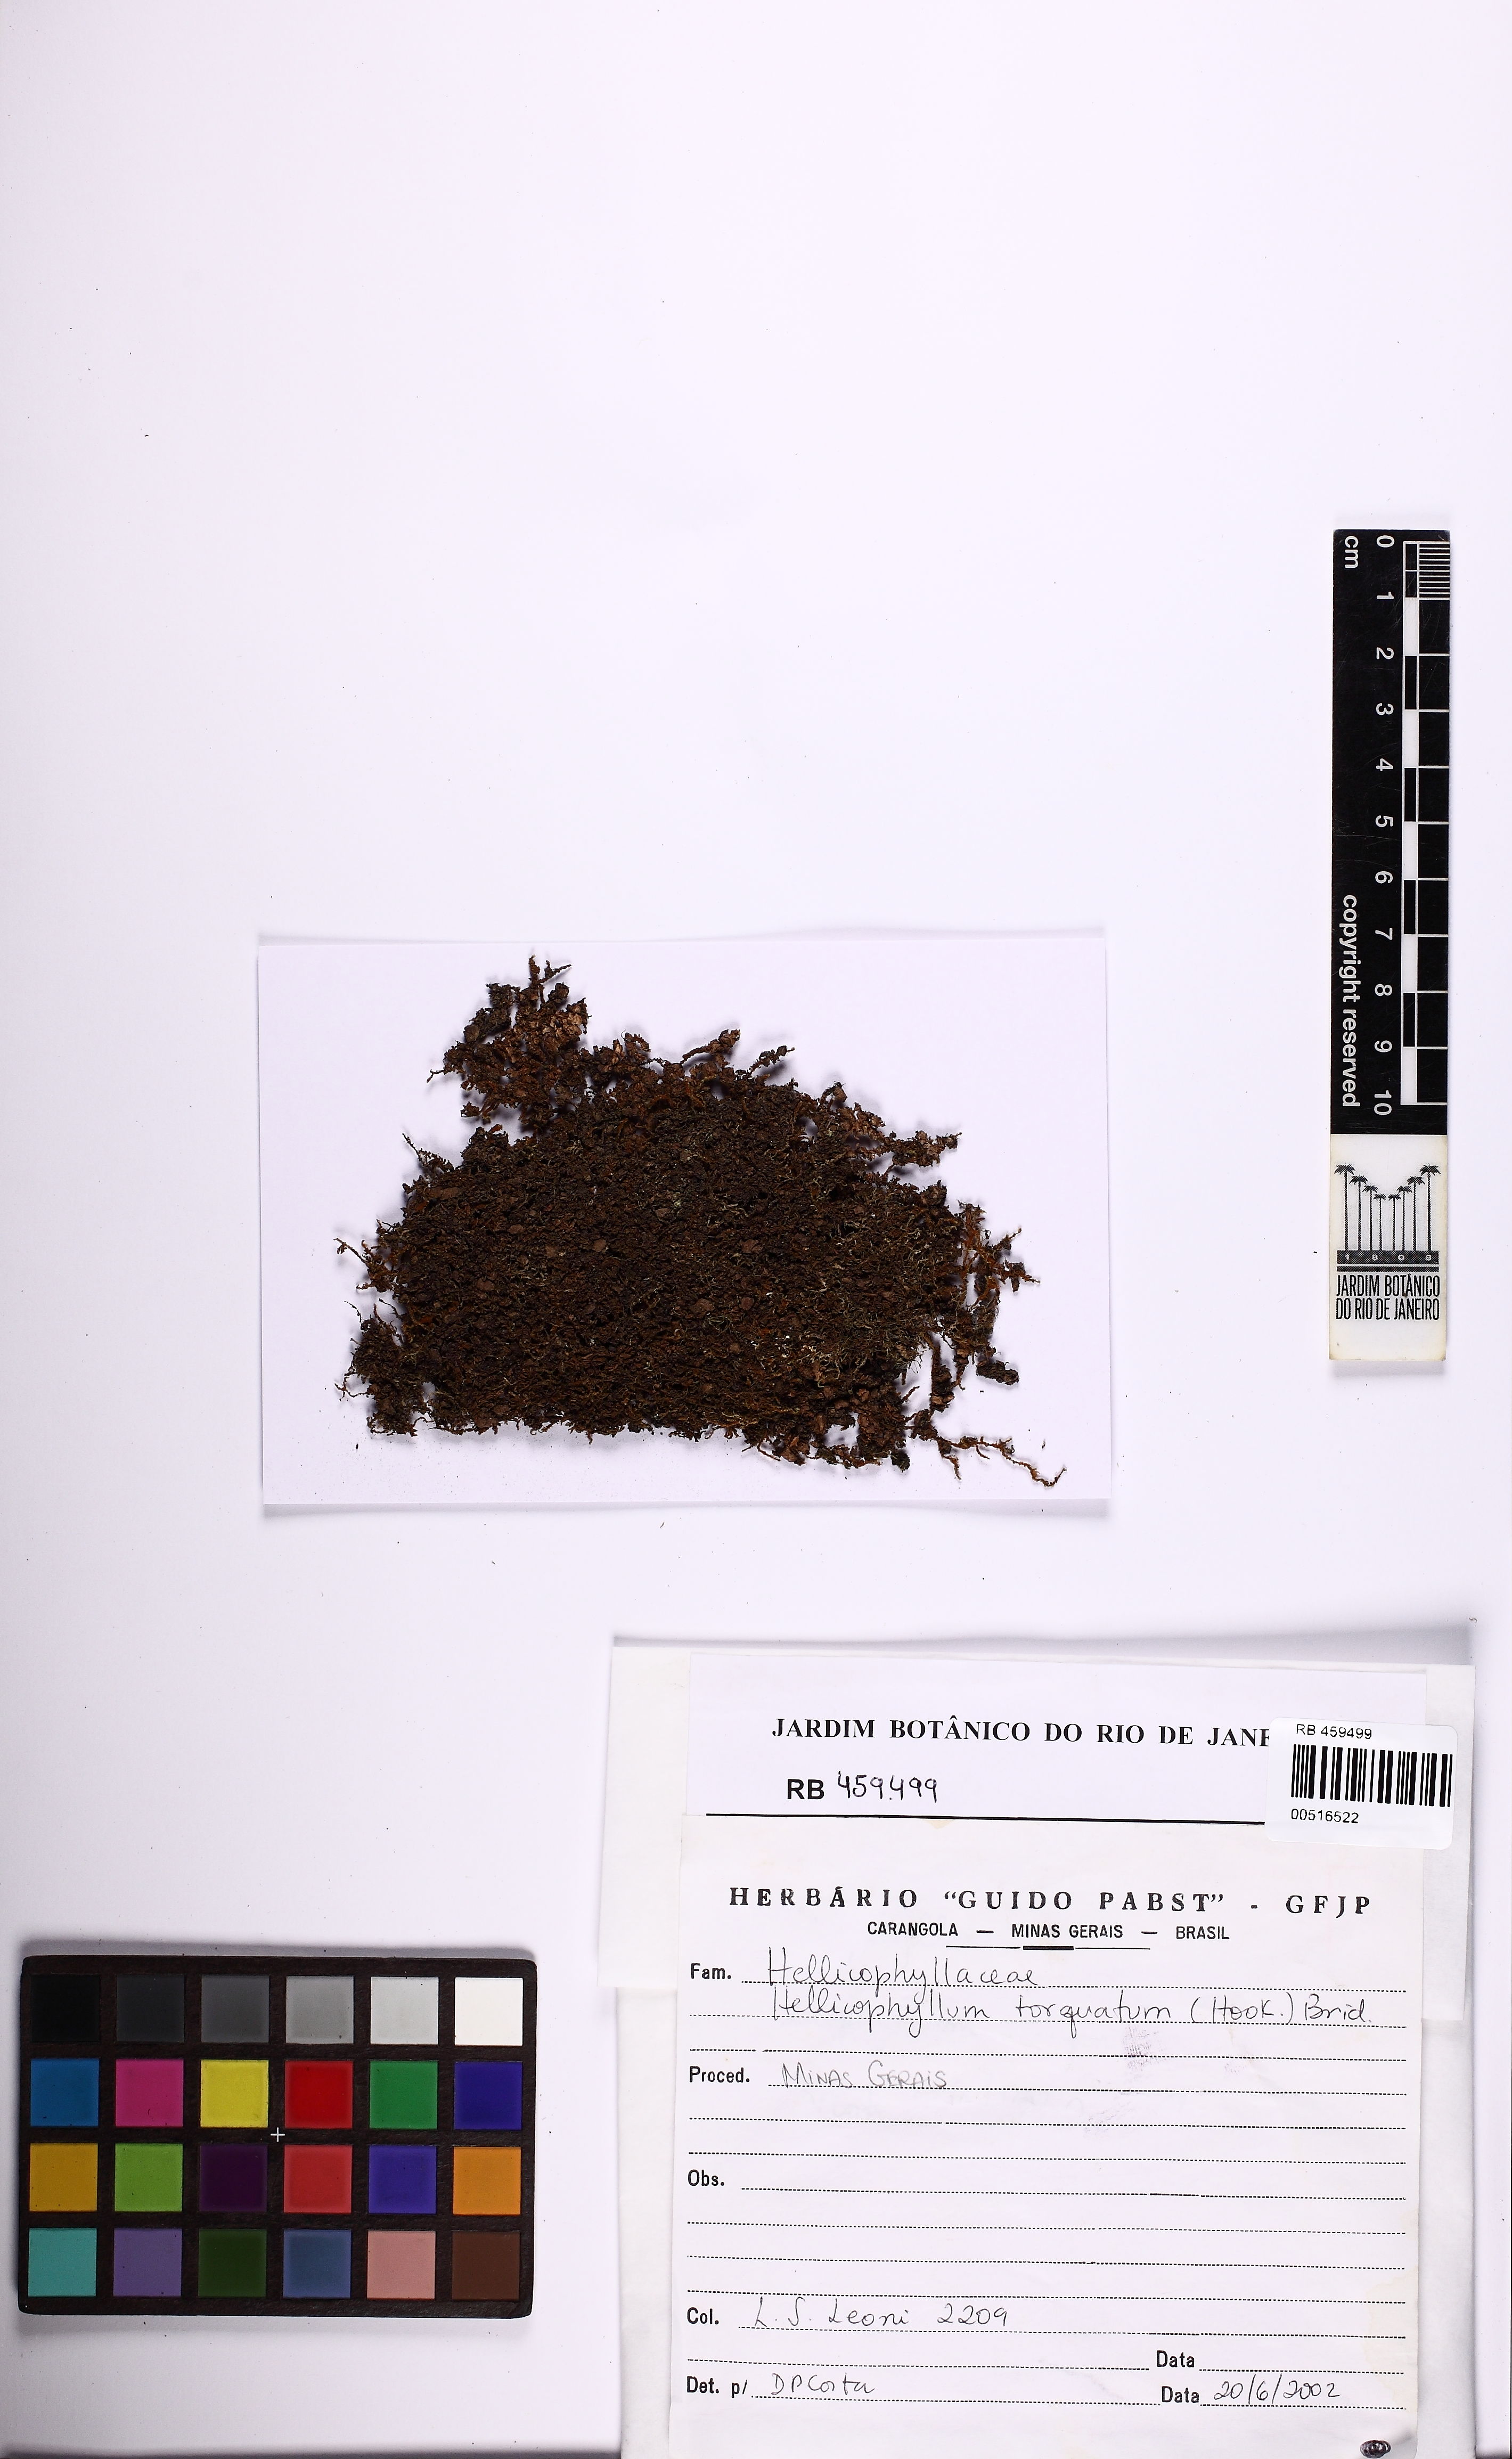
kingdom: Plantae
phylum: Bryophyta
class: Bryopsida
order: Helicophyllales
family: Helicophyllaceae
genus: Helicophyllum
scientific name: Helicophyllum torquatum
